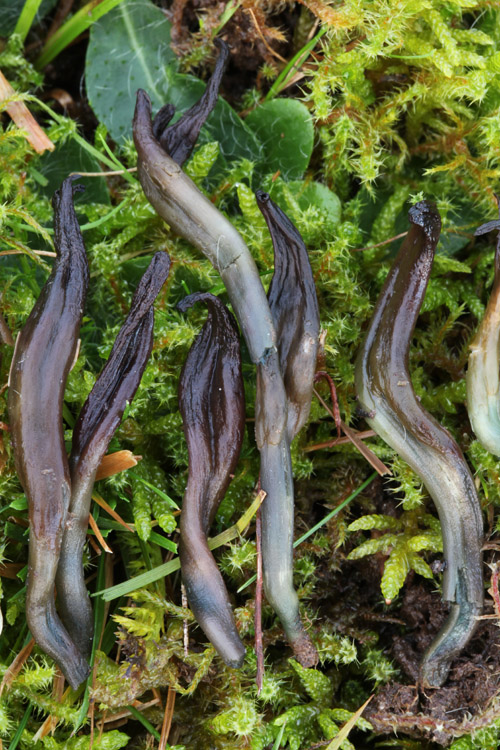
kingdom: Fungi
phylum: Ascomycota
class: Leotiomycetes
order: Helotiales
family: Lachnaceae
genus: Microglossum
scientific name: Microglossum
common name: farvetunge
